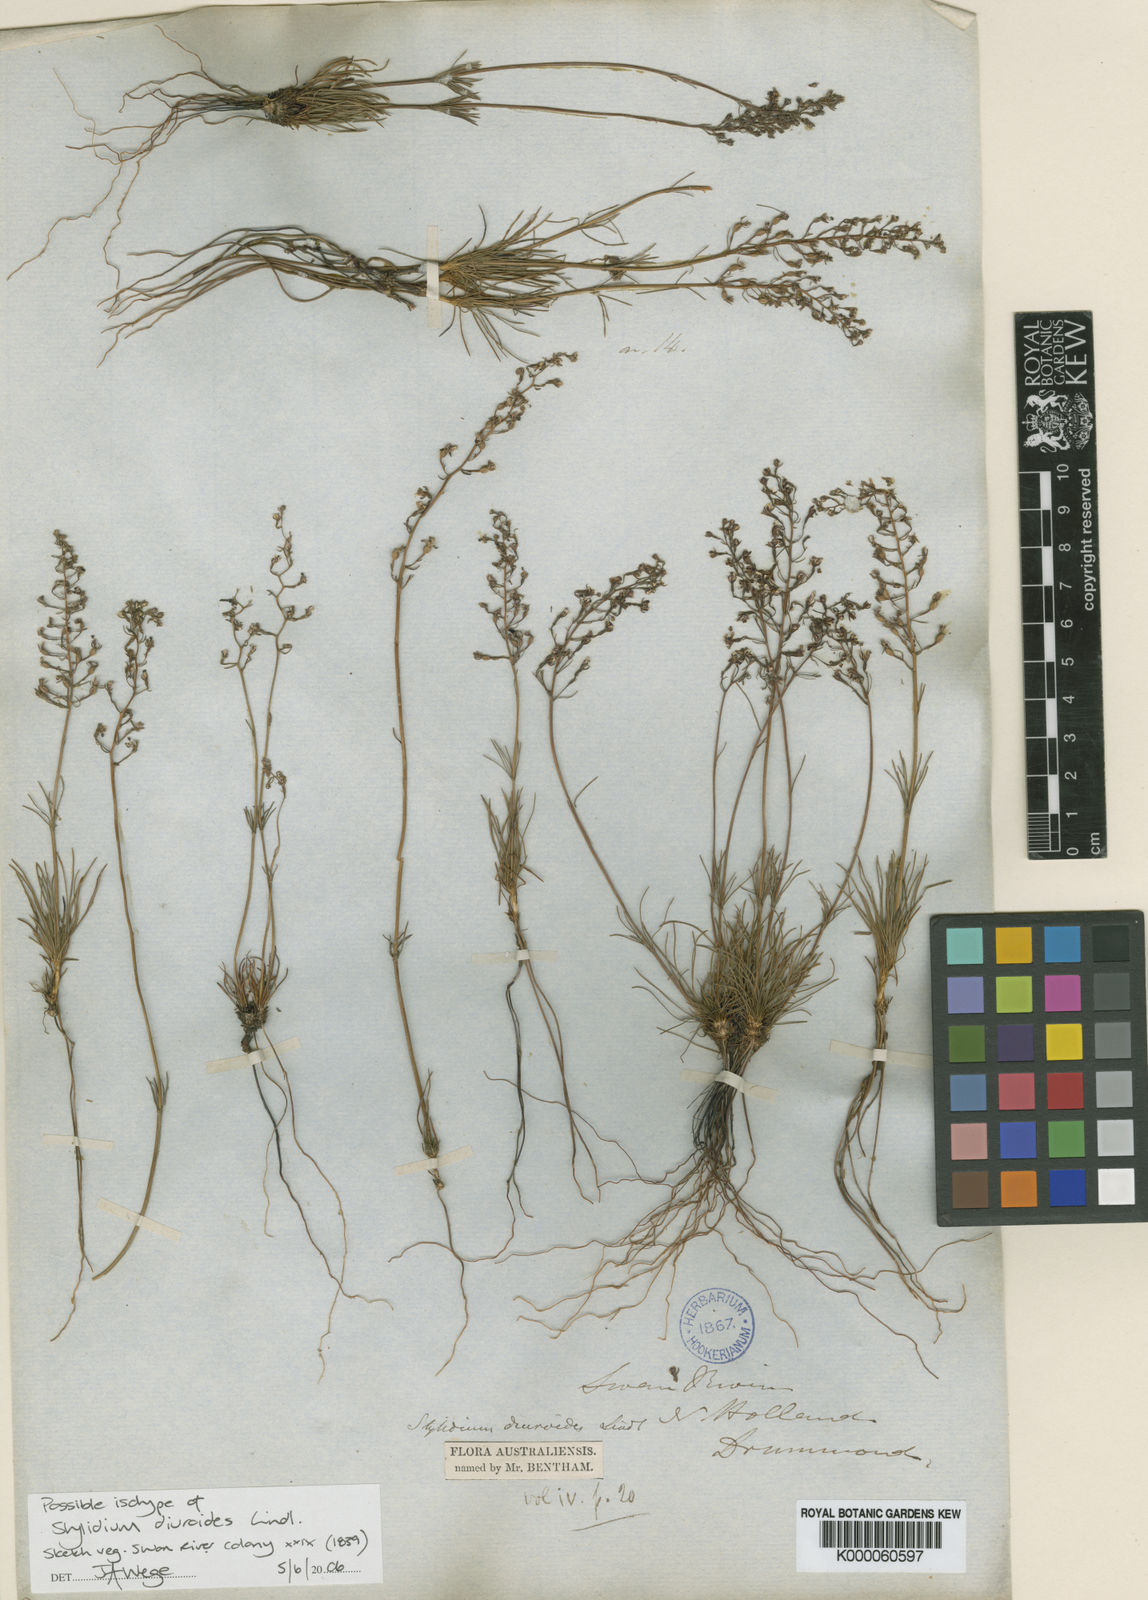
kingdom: Plantae
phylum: Tracheophyta
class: Magnoliopsida
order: Asterales
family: Stylidiaceae
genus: Stylidium
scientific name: Stylidium diuroides
